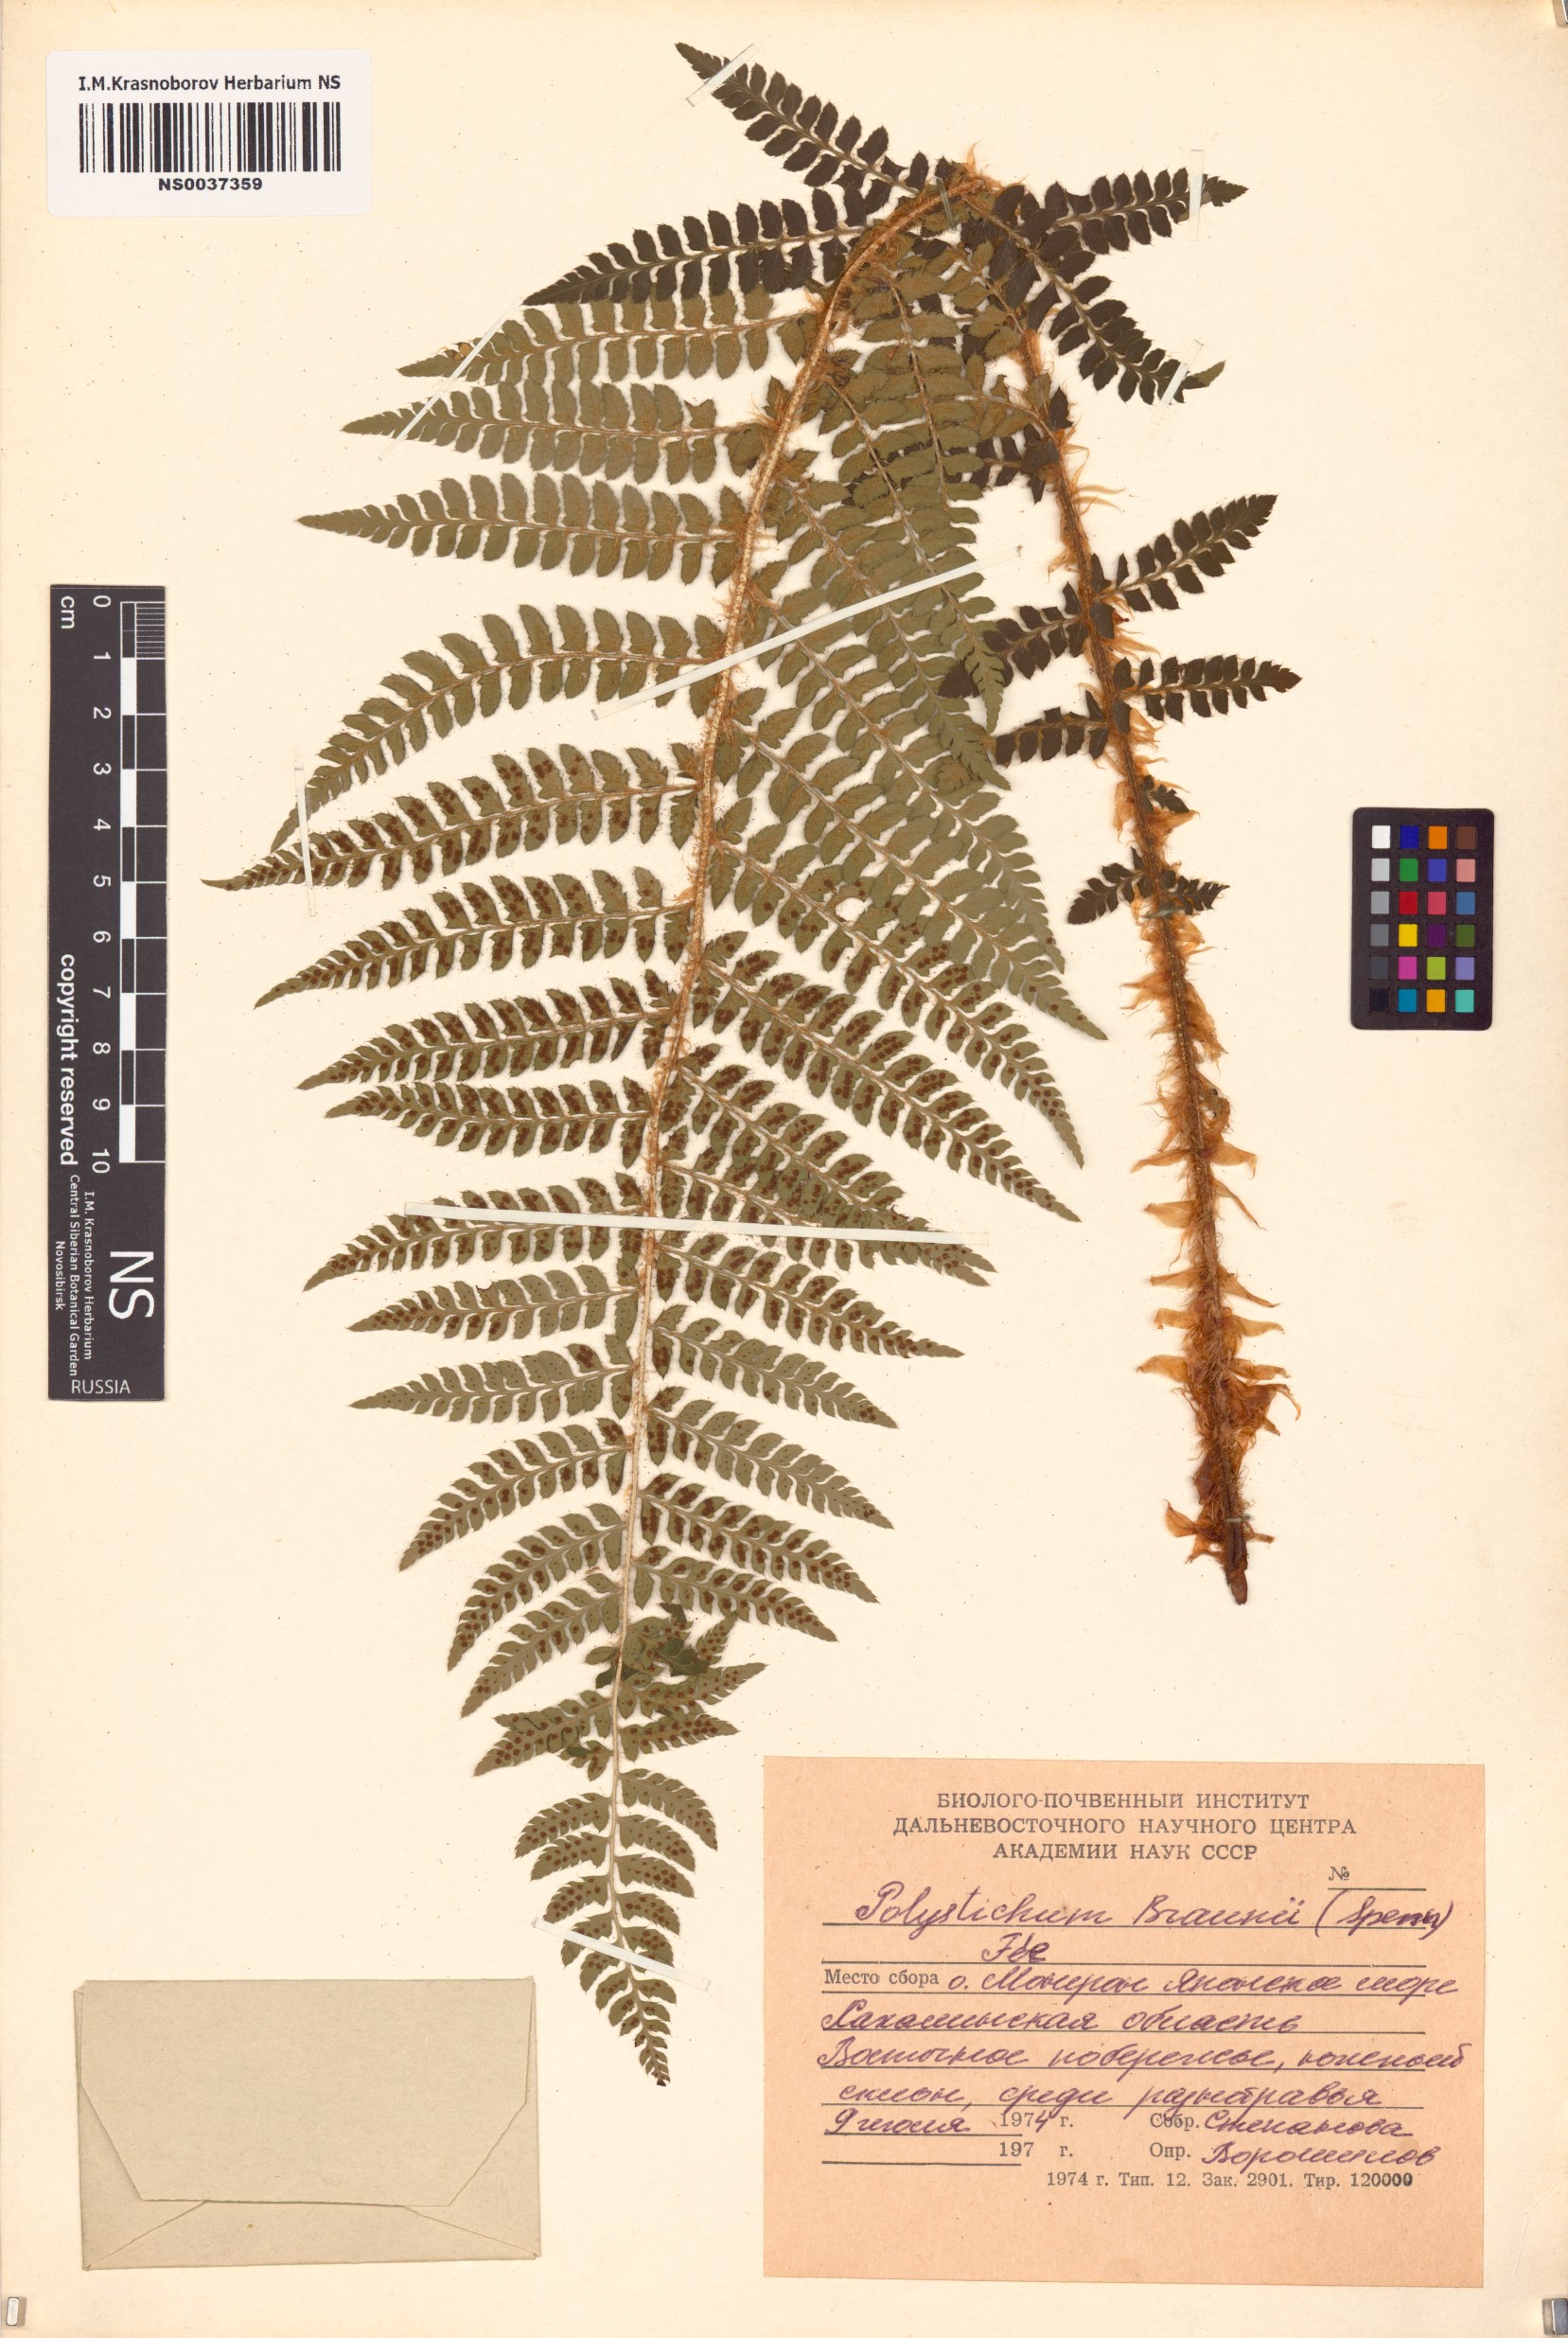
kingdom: Plantae
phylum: Tracheophyta
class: Polypodiopsida
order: Polypodiales
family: Dryopteridaceae
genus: Polystichum
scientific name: Polystichum braunii
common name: Braun's holly fern
